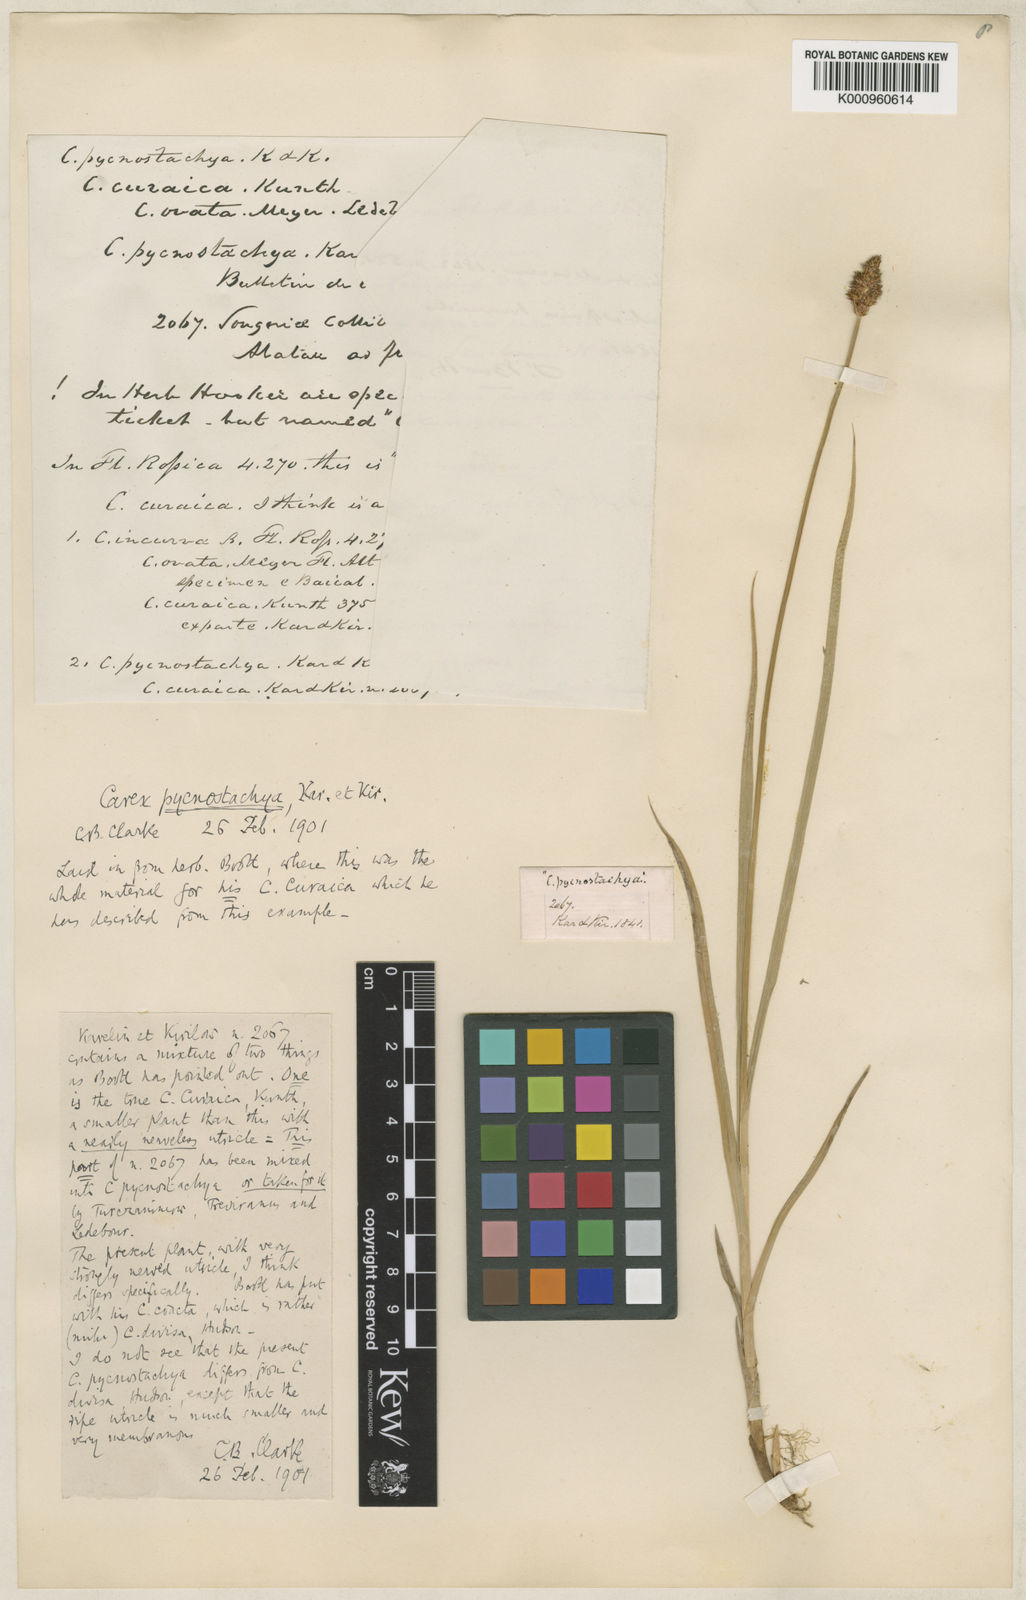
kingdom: Plantae
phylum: Tracheophyta
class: Liliopsida
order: Poales
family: Cyperaceae
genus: Carex
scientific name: Carex curaica
